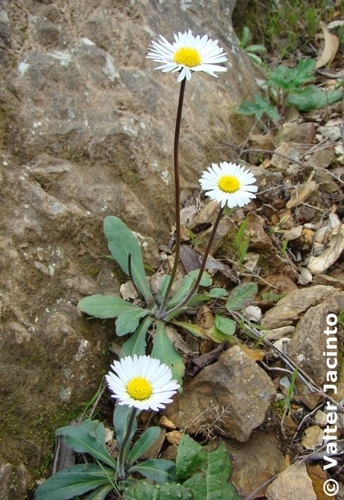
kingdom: Plantae
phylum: Tracheophyta
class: Magnoliopsida
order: Asterales
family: Asteraceae
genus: Bellis
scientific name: Bellis perennis
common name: Lawndaisy
